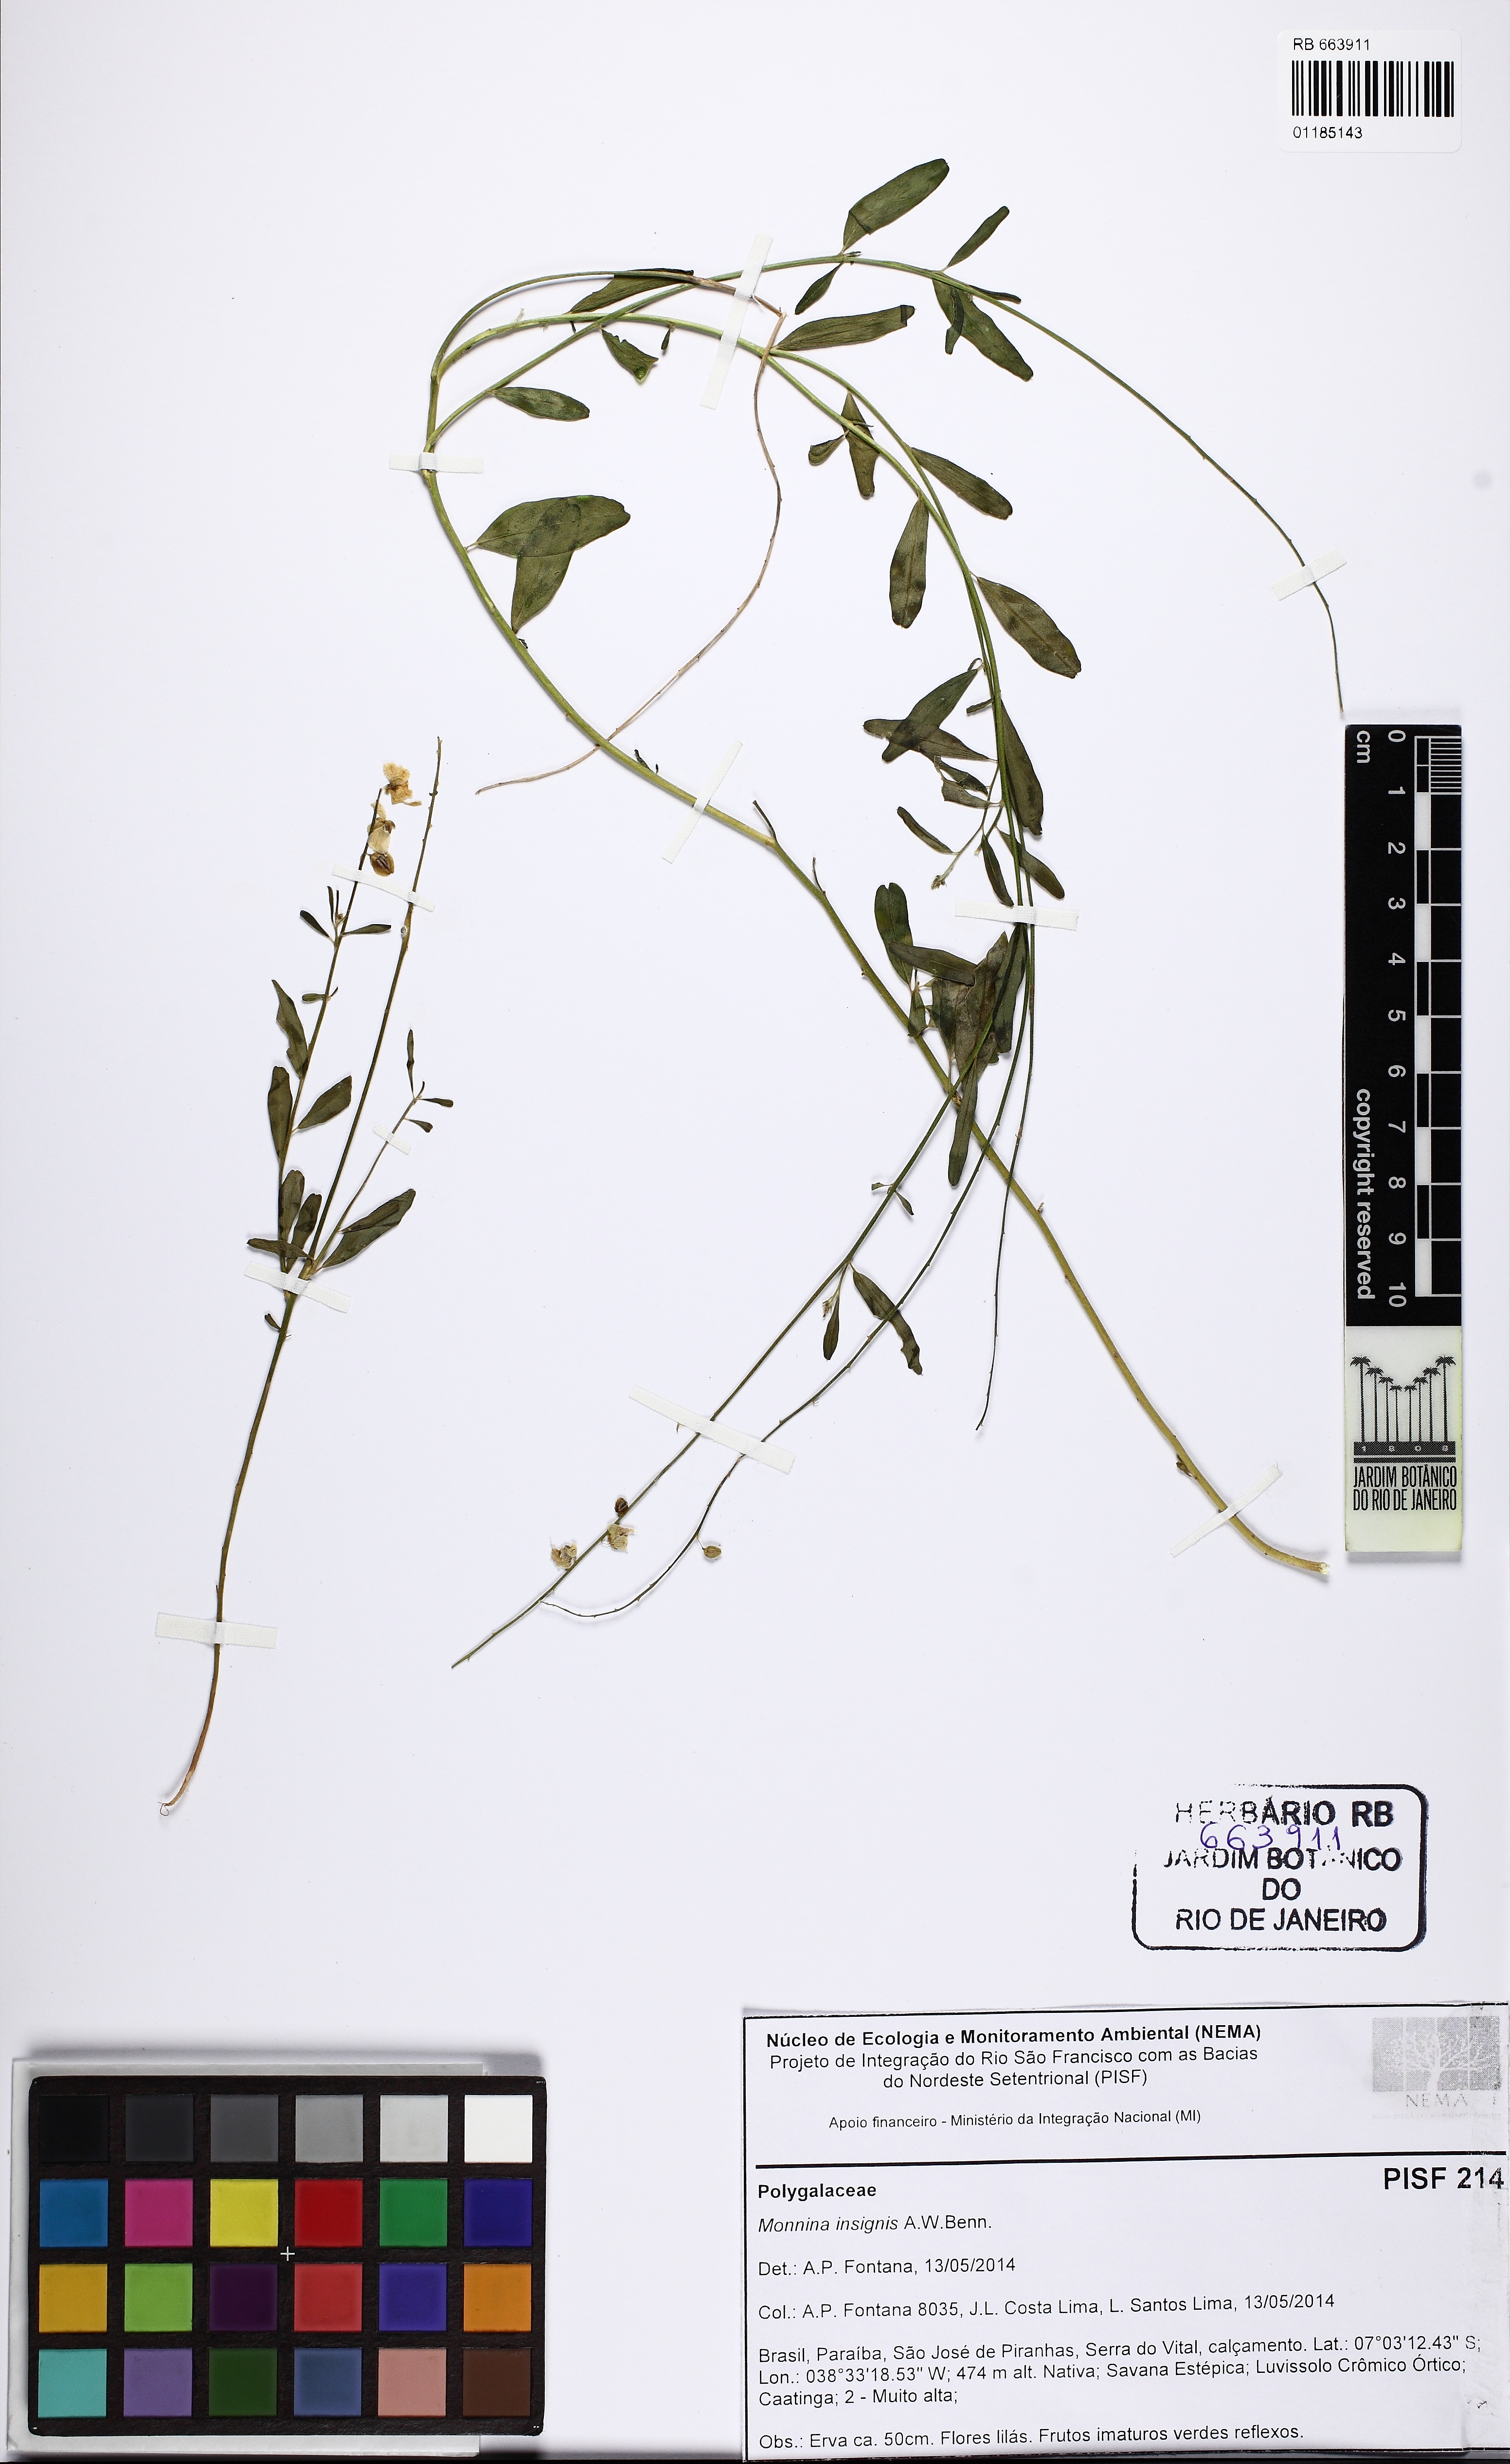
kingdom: Plantae
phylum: Tracheophyta
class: Magnoliopsida
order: Fabales
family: Polygalaceae
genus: Ancylotropis
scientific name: Ancylotropis insignis
